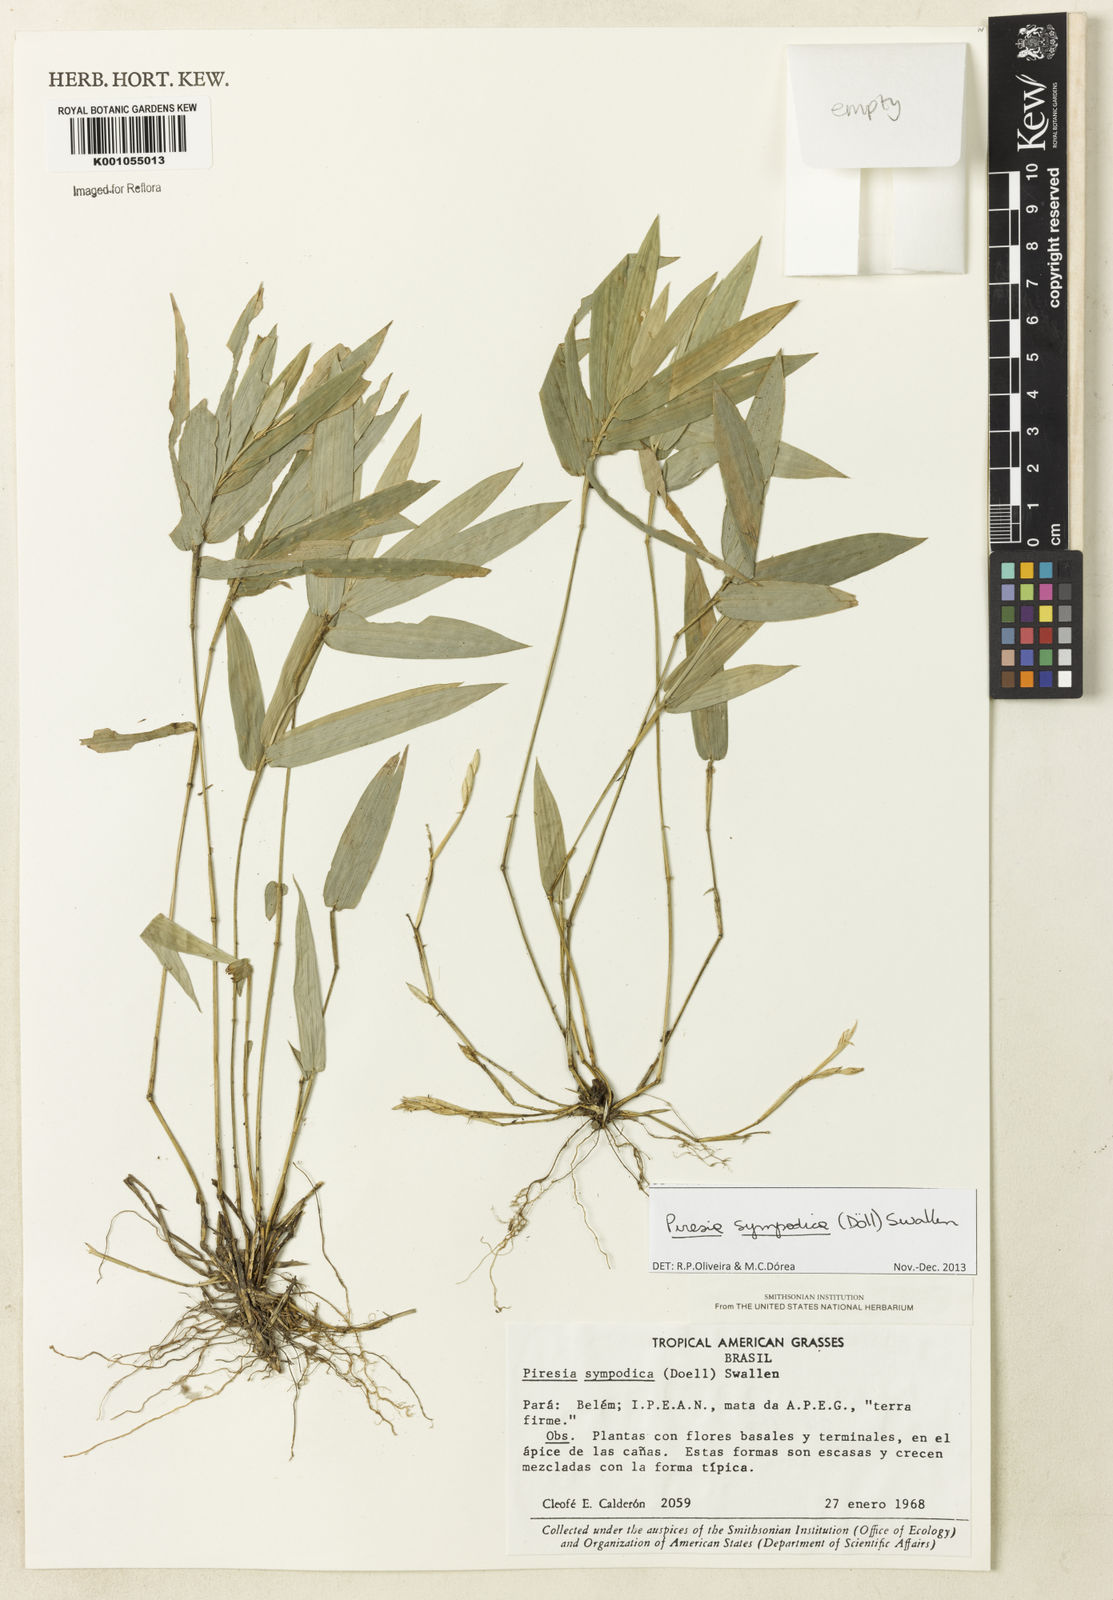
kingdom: Plantae
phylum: Tracheophyta
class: Liliopsida
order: Poales
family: Poaceae
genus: Piresia
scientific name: Piresia
